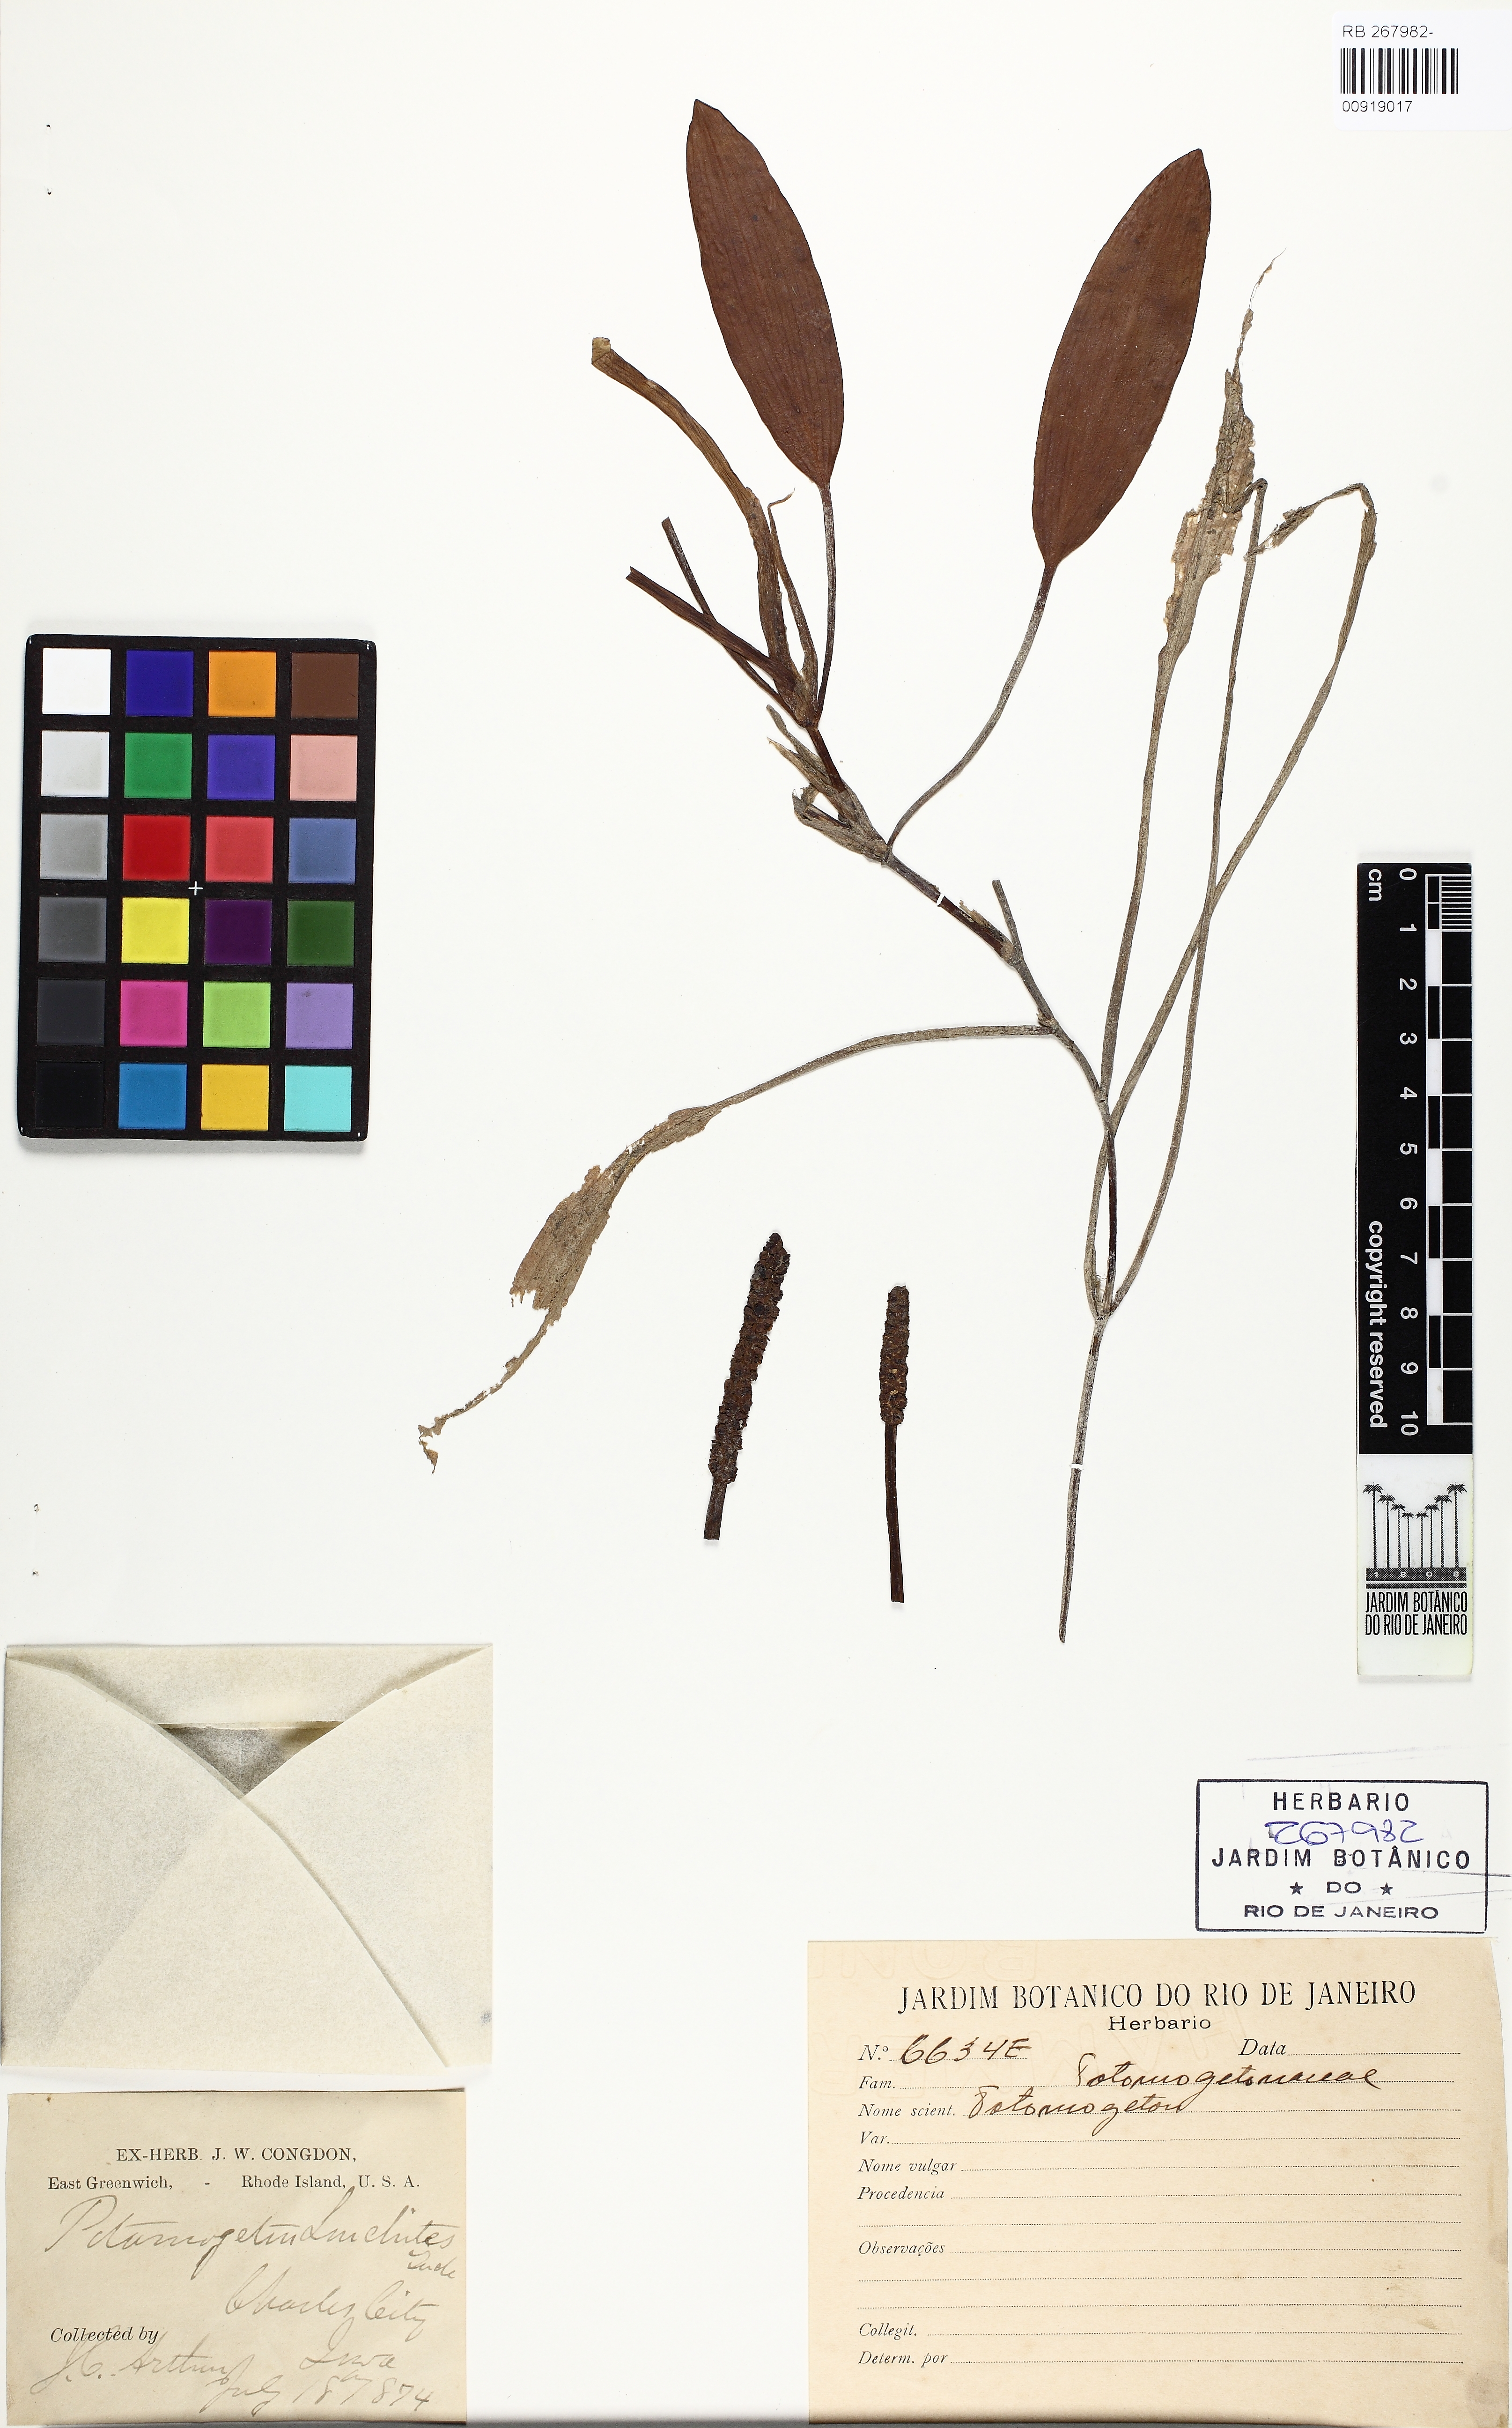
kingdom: Plantae
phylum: Tracheophyta
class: Liliopsida
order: Alismatales
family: Potamogetonaceae
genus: Potamogeton
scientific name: Potamogeton gramineus
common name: Various-leaved pondweed
